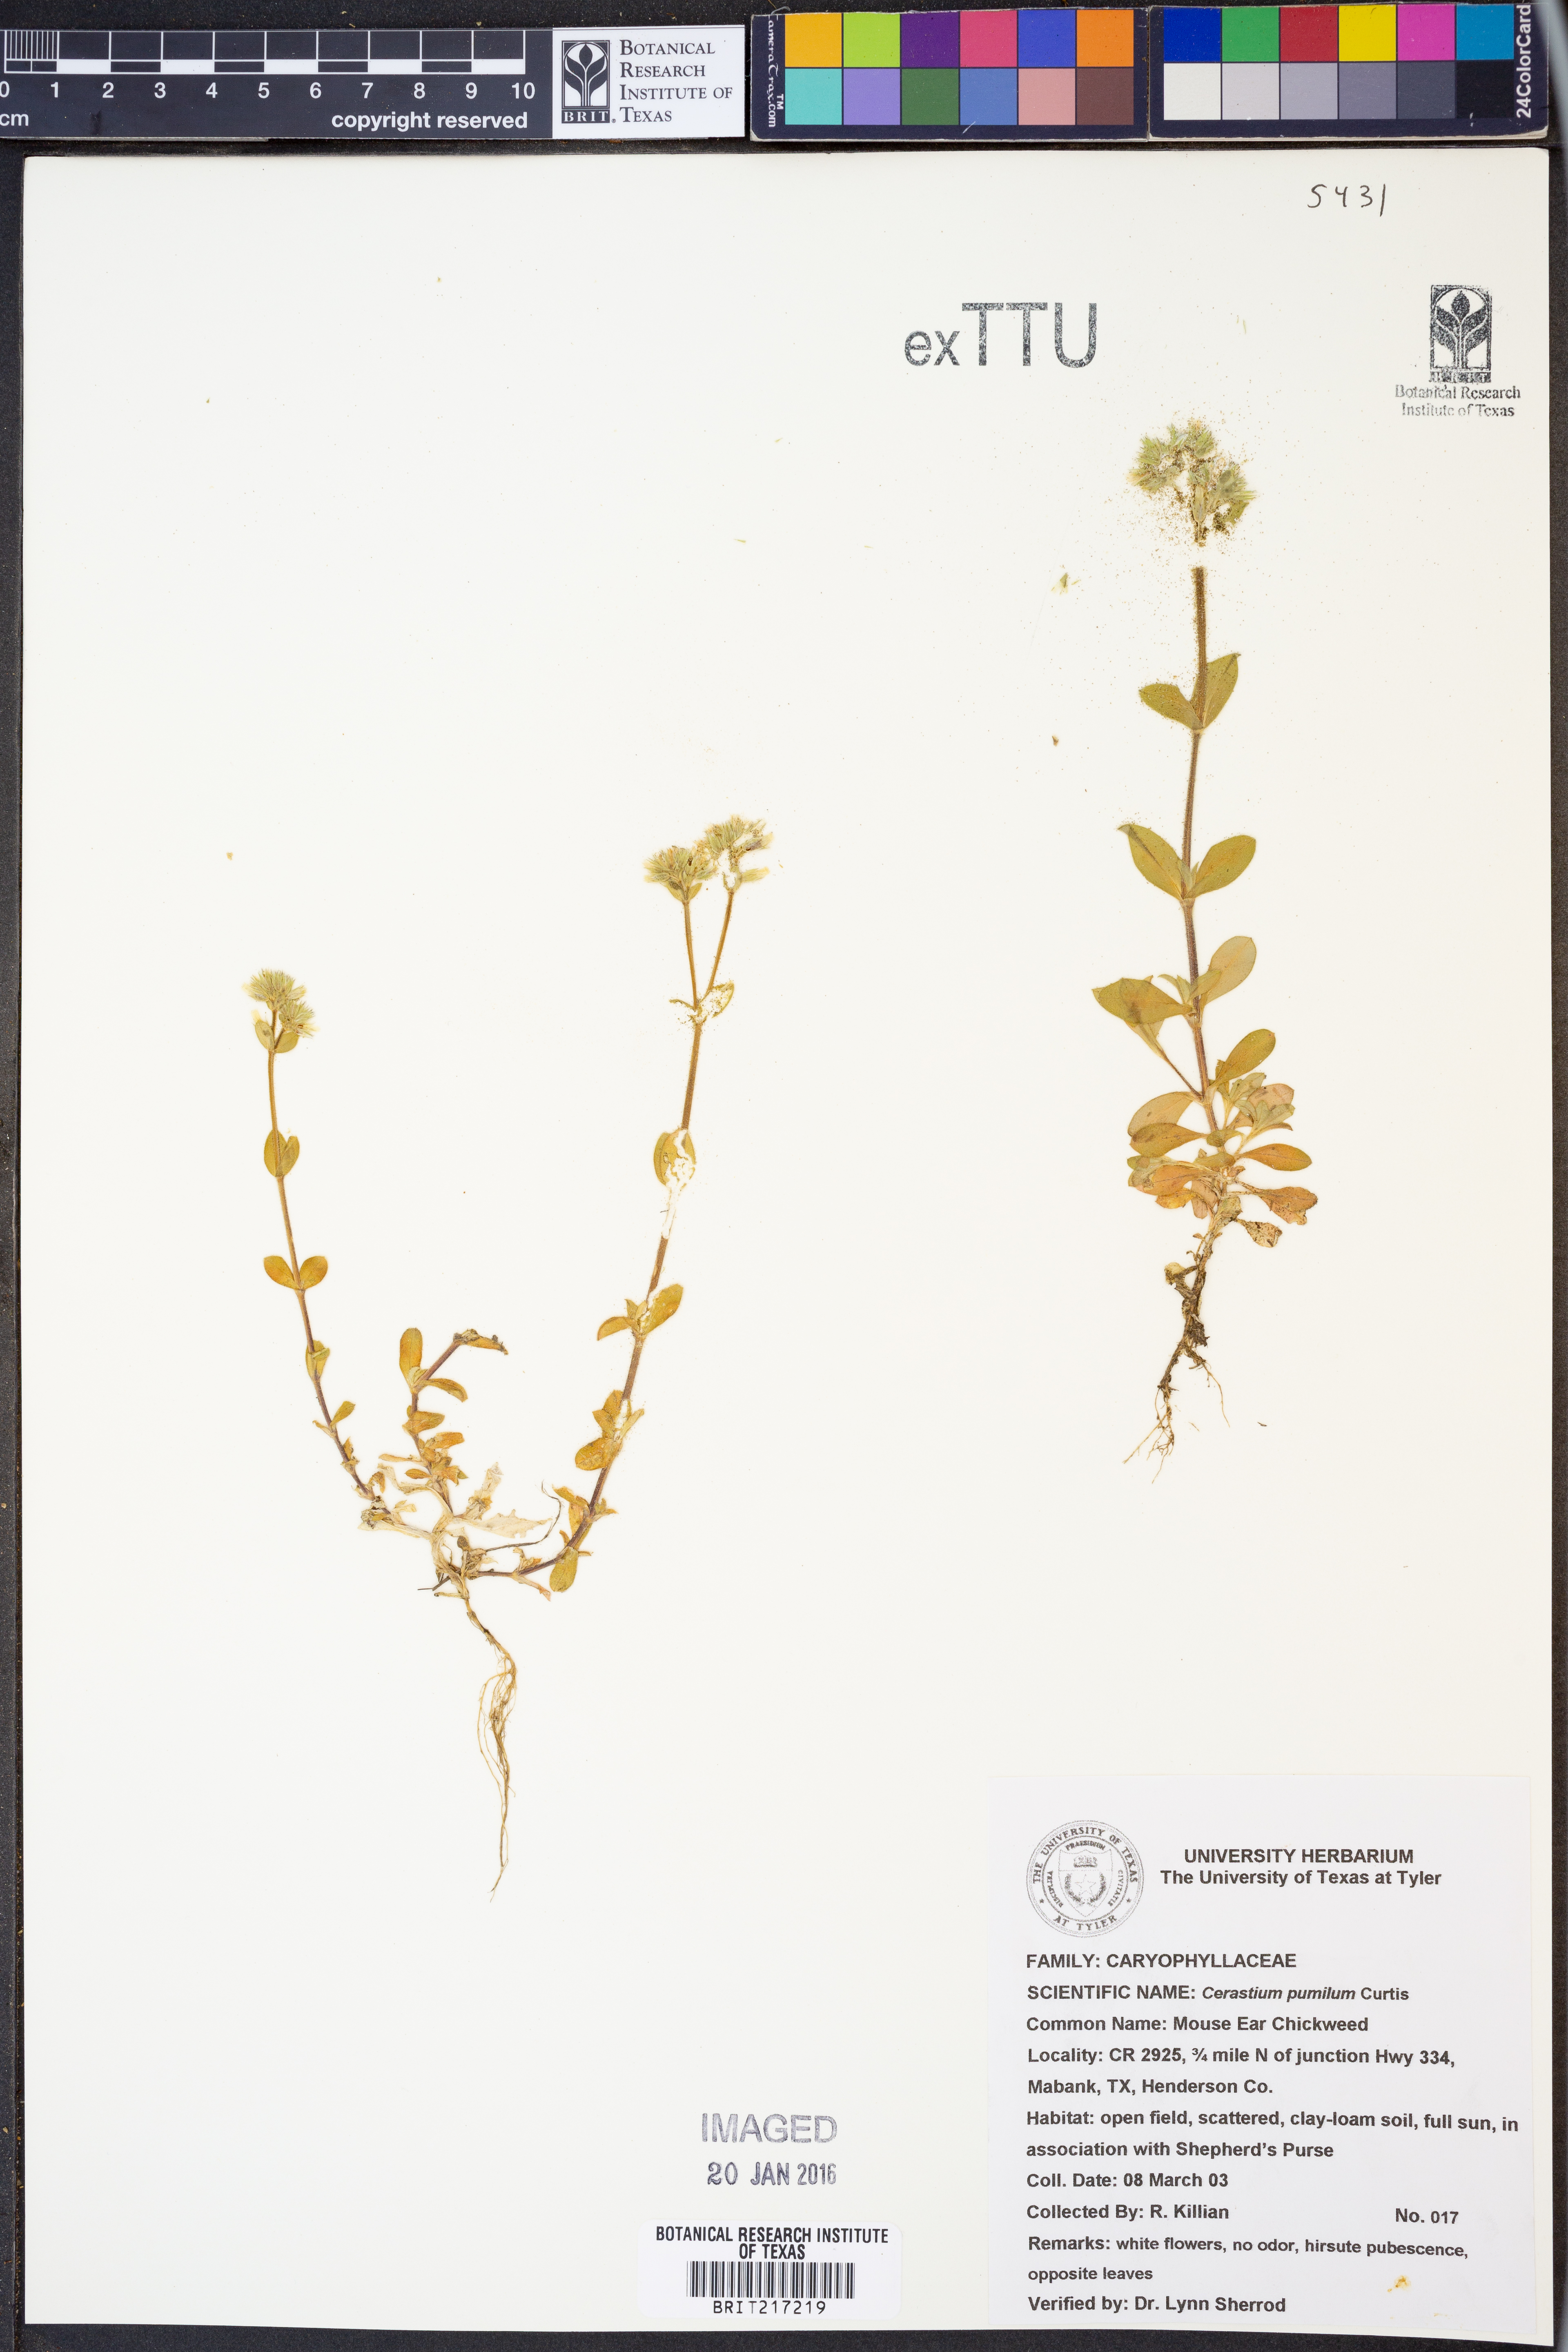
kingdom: Plantae
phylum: Tracheophyta
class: Magnoliopsida
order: Caryophyllales
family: Caryophyllaceae
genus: Cerastium
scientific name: Cerastium pumilum
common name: Dwarf mouse-ear
